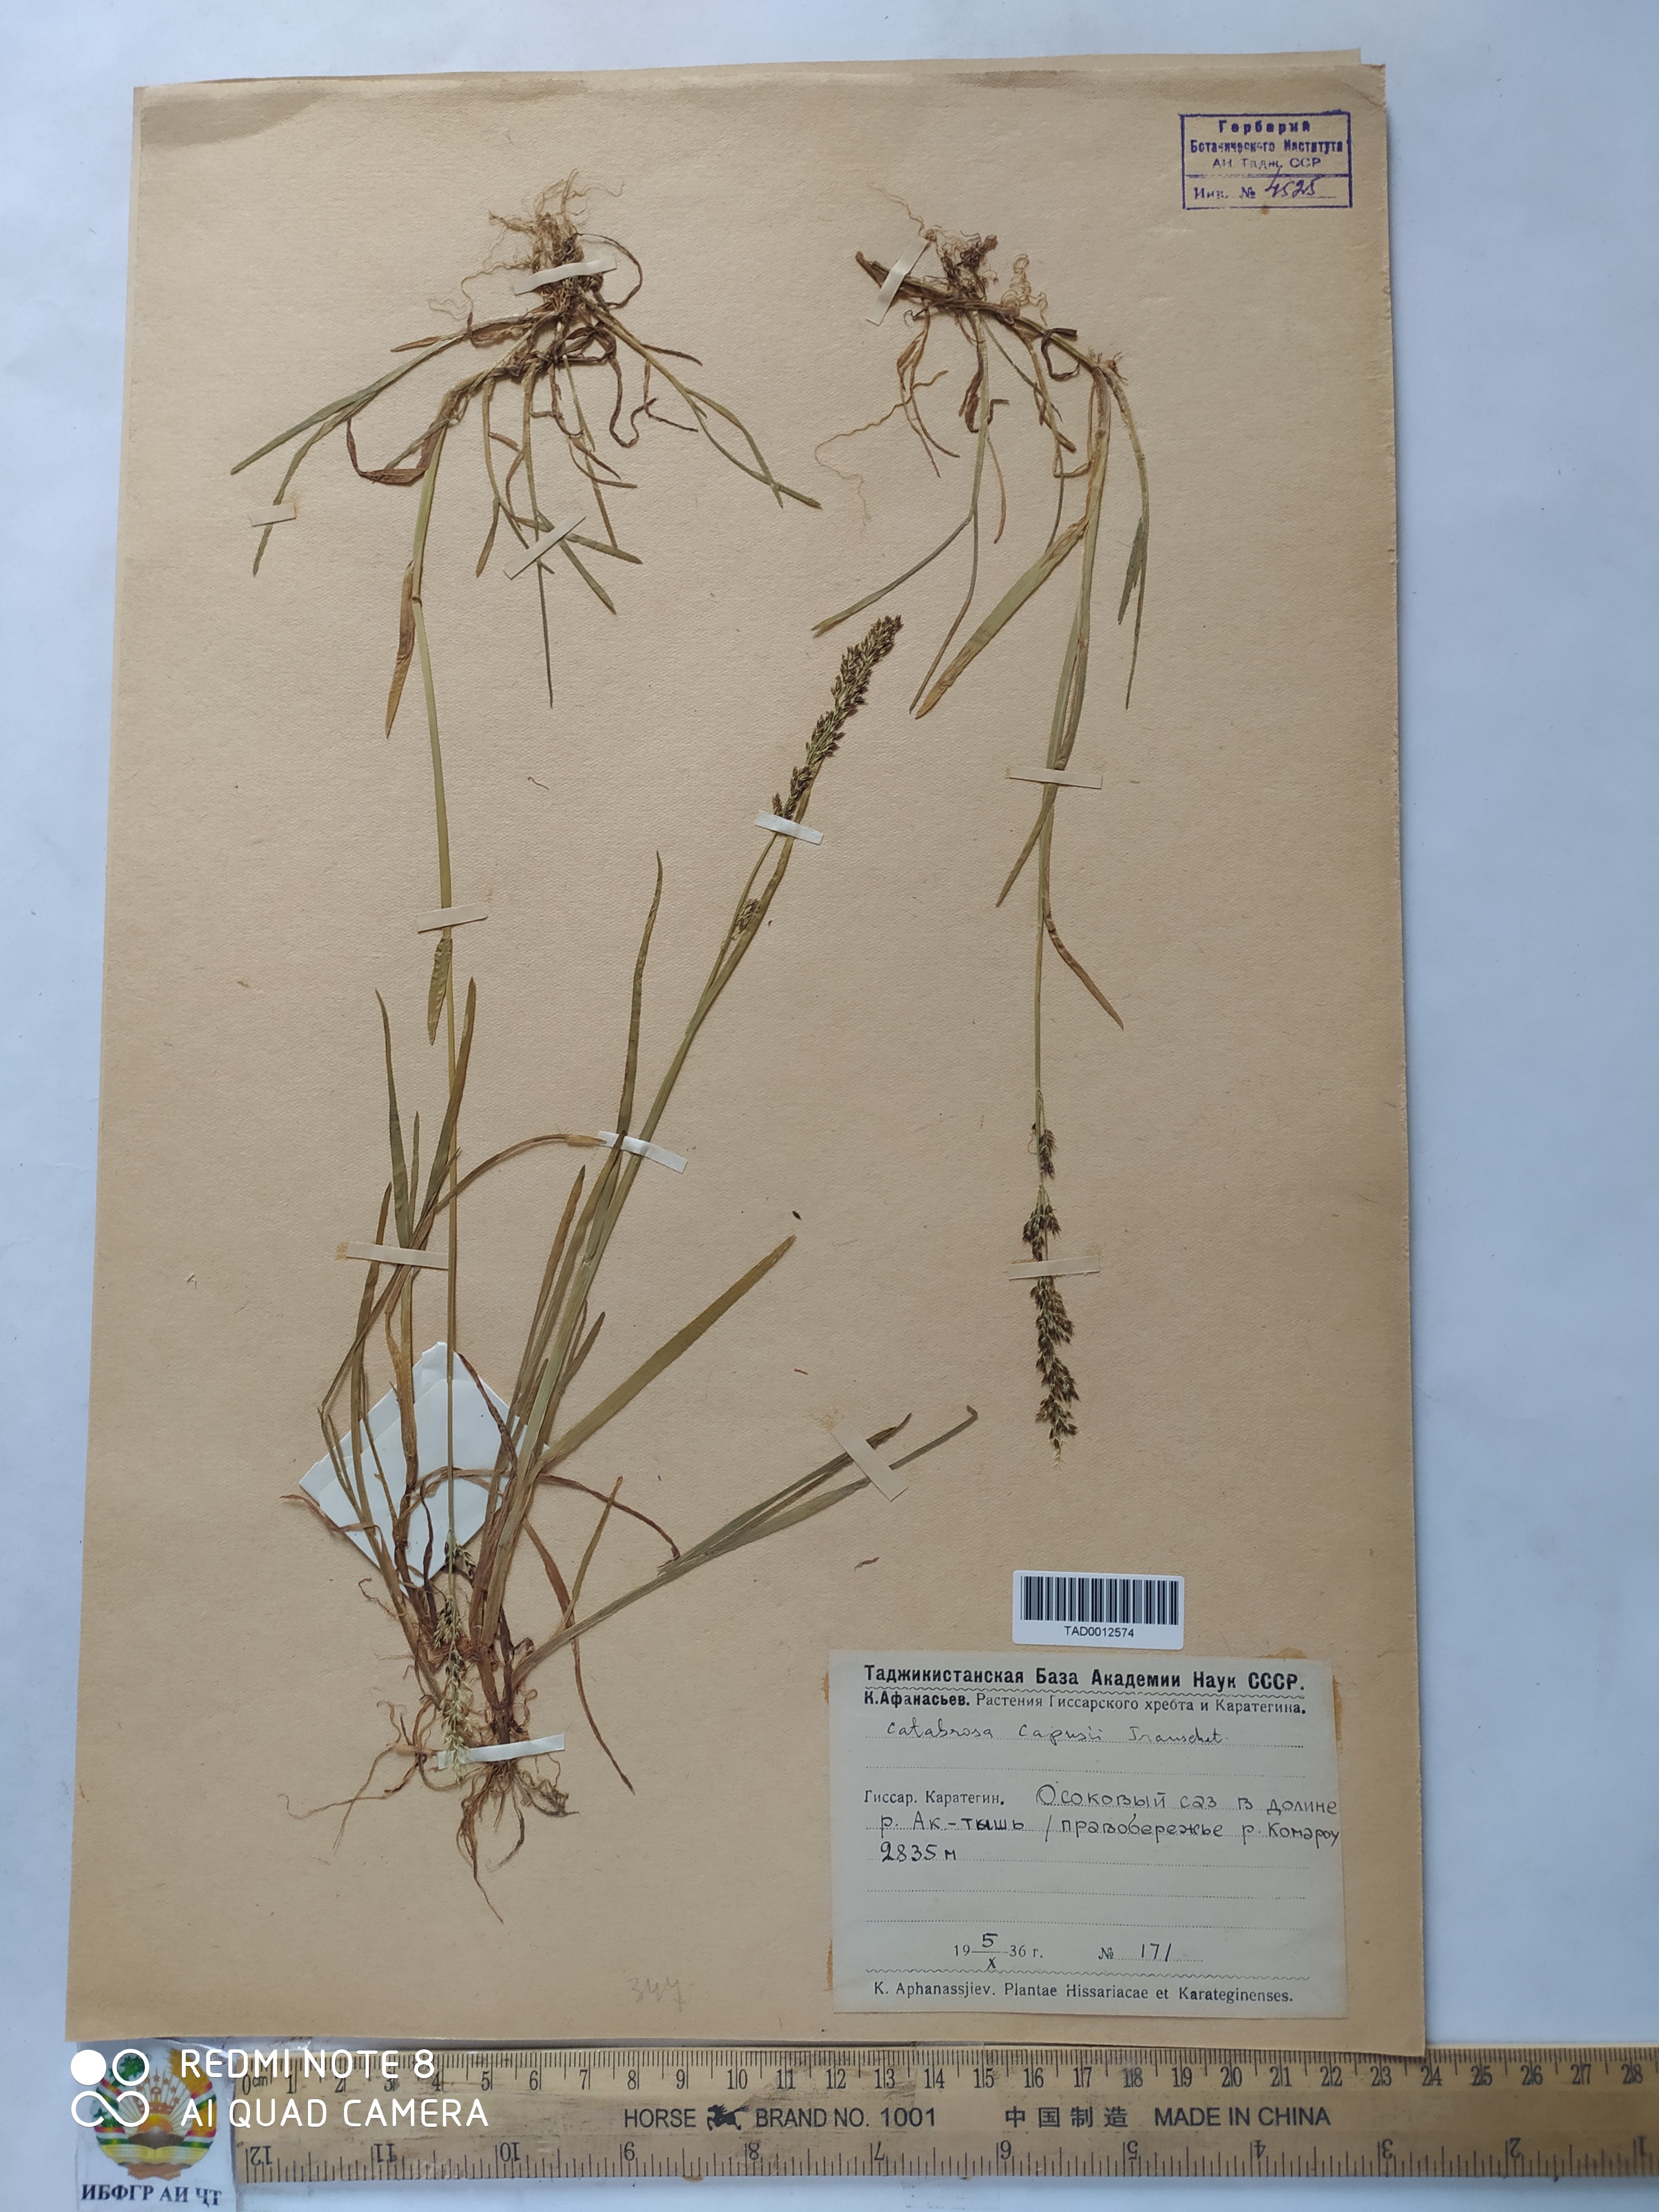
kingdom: Plantae
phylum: Tracheophyta
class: Liliopsida
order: Poales
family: Poaceae
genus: Catabrosa
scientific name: Catabrosa aquatica
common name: Whorl-grass
